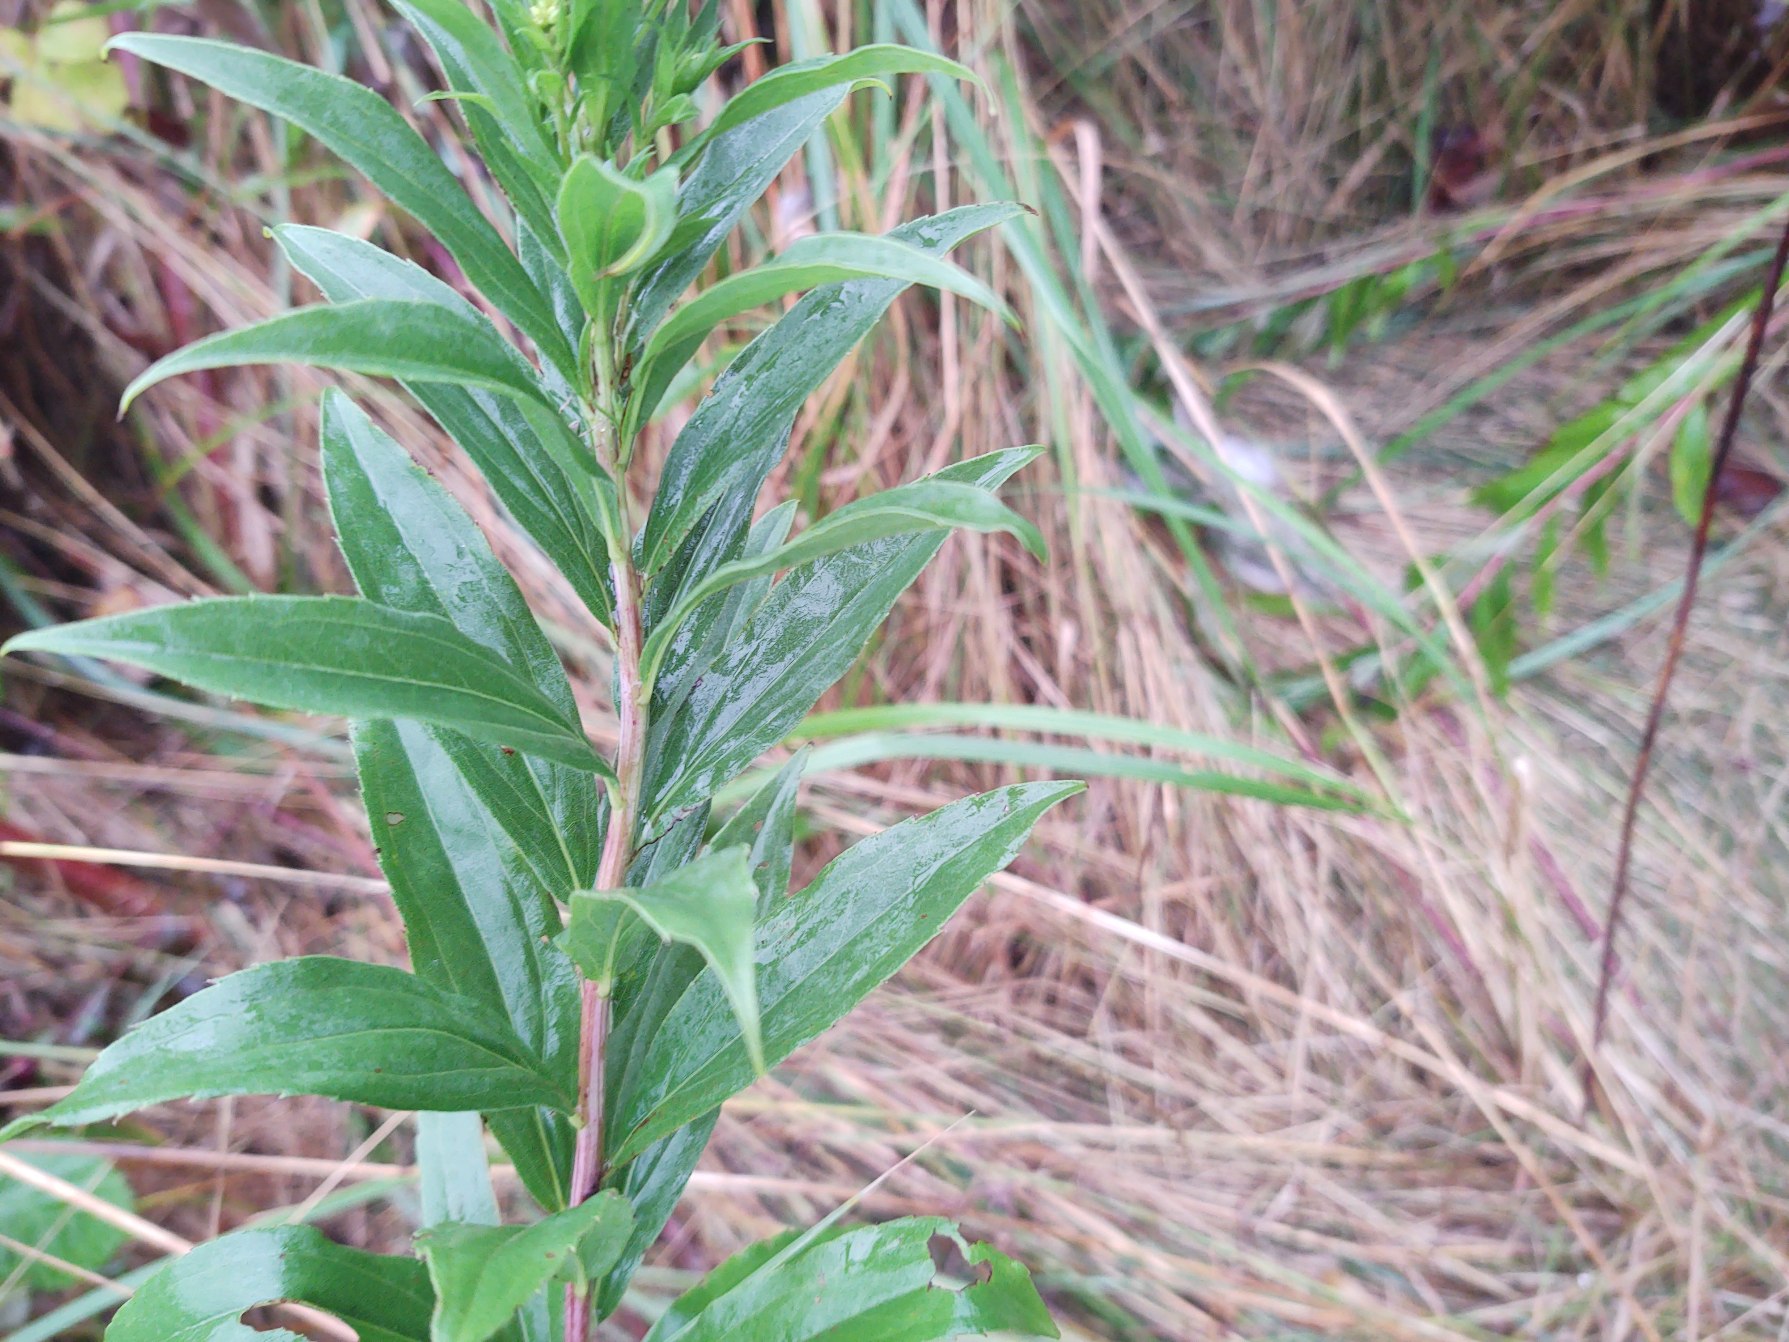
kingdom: Plantae
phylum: Tracheophyta
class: Magnoliopsida
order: Asterales
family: Asteraceae
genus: Solidago
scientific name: Solidago gigantea
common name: Sildig gyldenris
